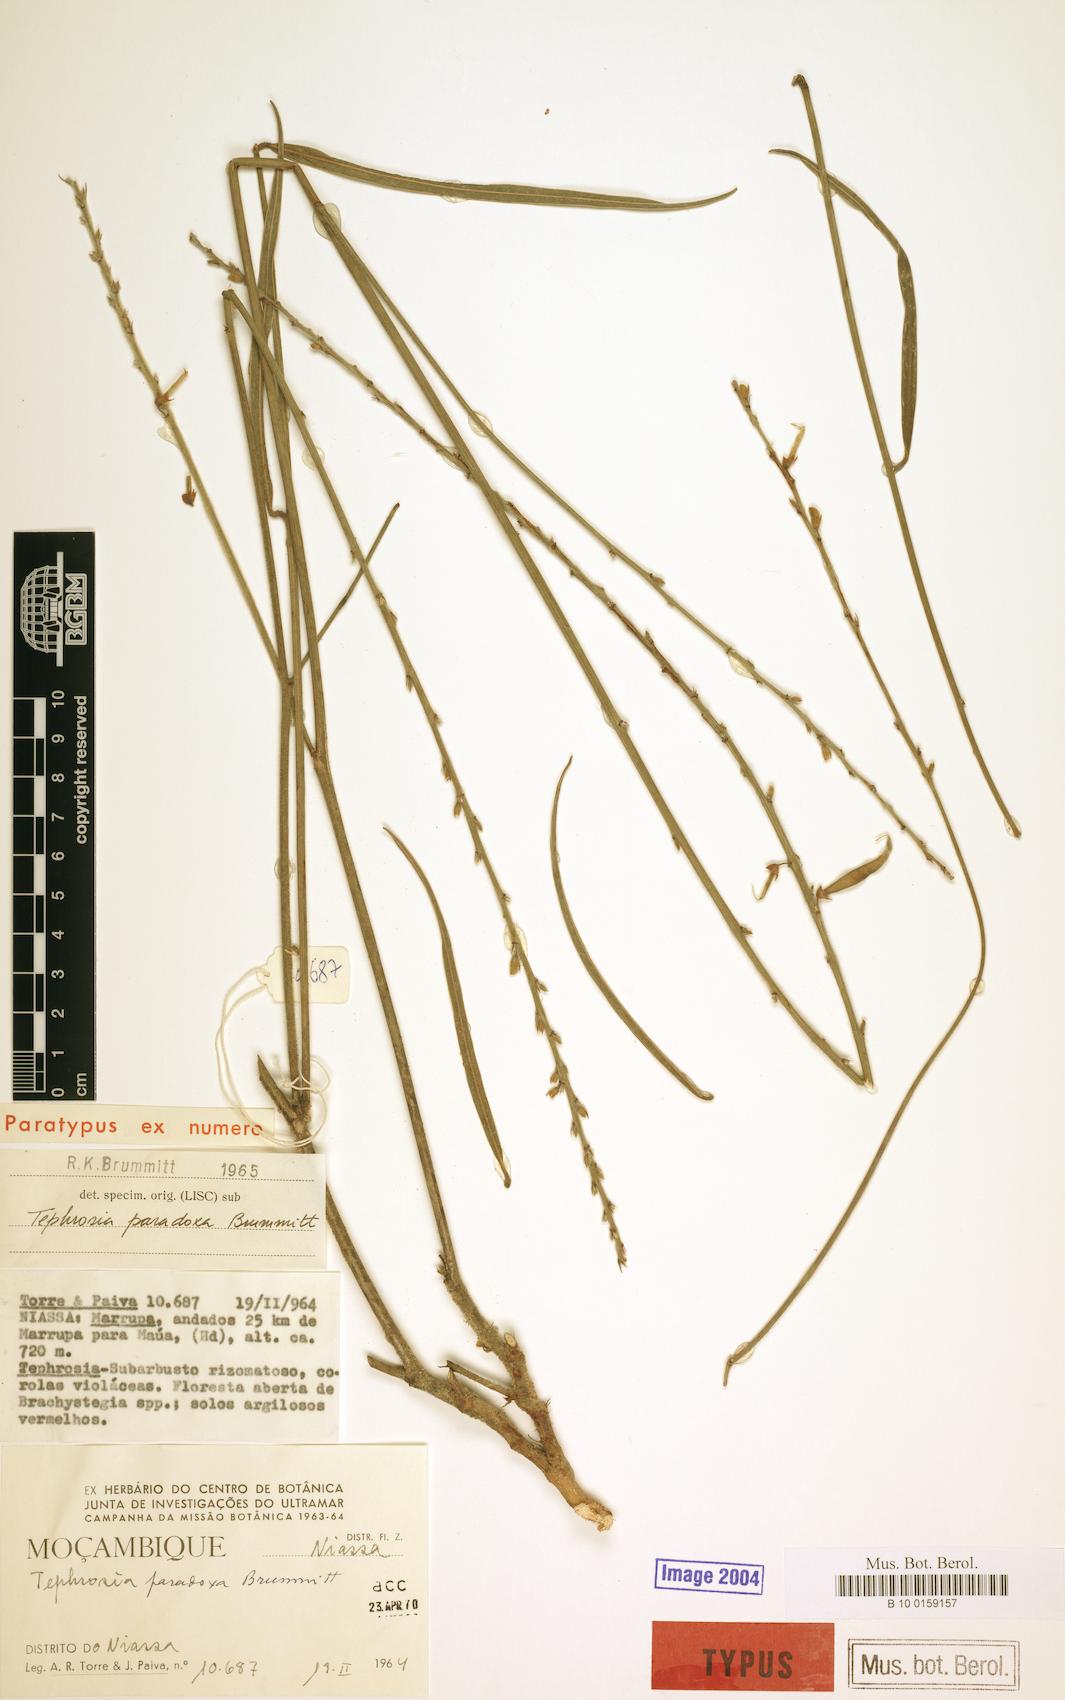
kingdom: Plantae
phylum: Tracheophyta
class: Magnoliopsida
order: Fabales
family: Fabaceae
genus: Tephrosia
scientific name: Tephrosia paradoxa
